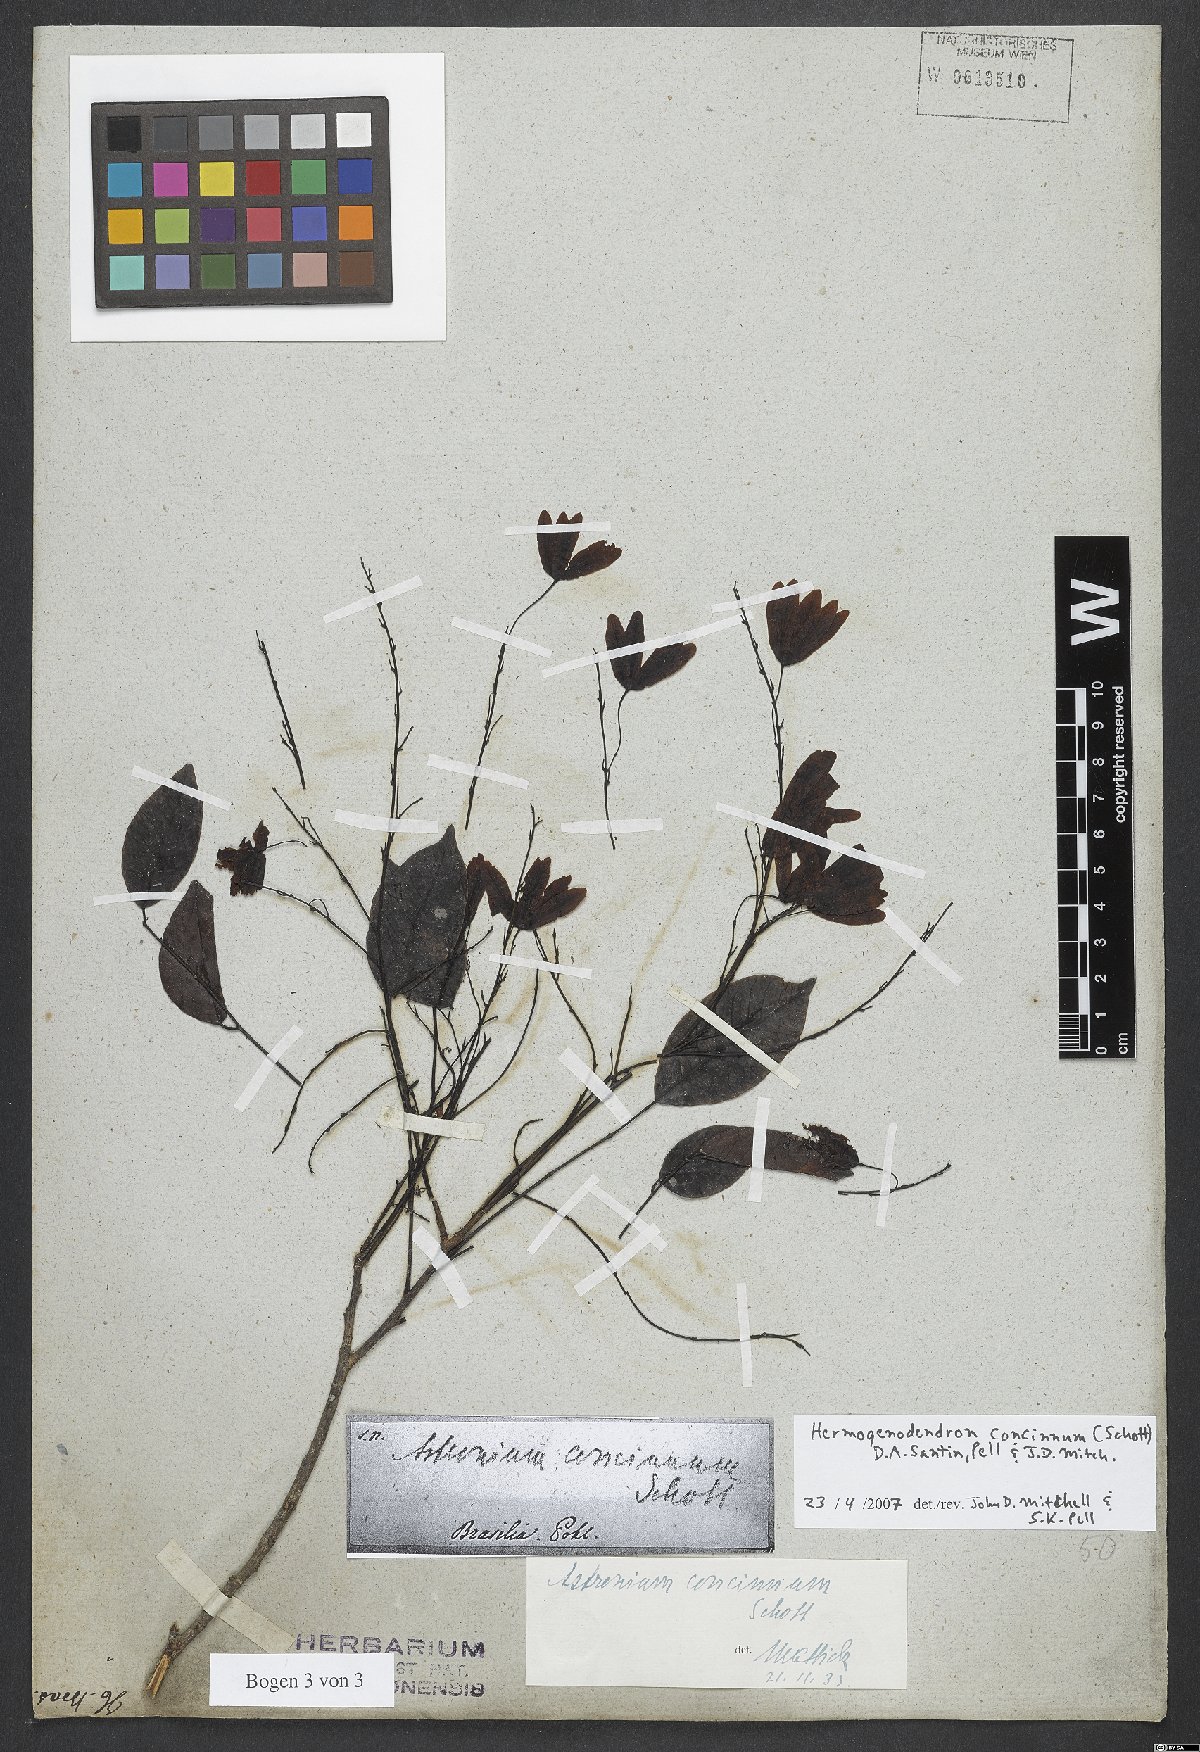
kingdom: Plantae
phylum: Tracheophyta
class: Magnoliopsida
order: Sapindales
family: Anacardiaceae
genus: Astronium
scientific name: Astronium concinnum
